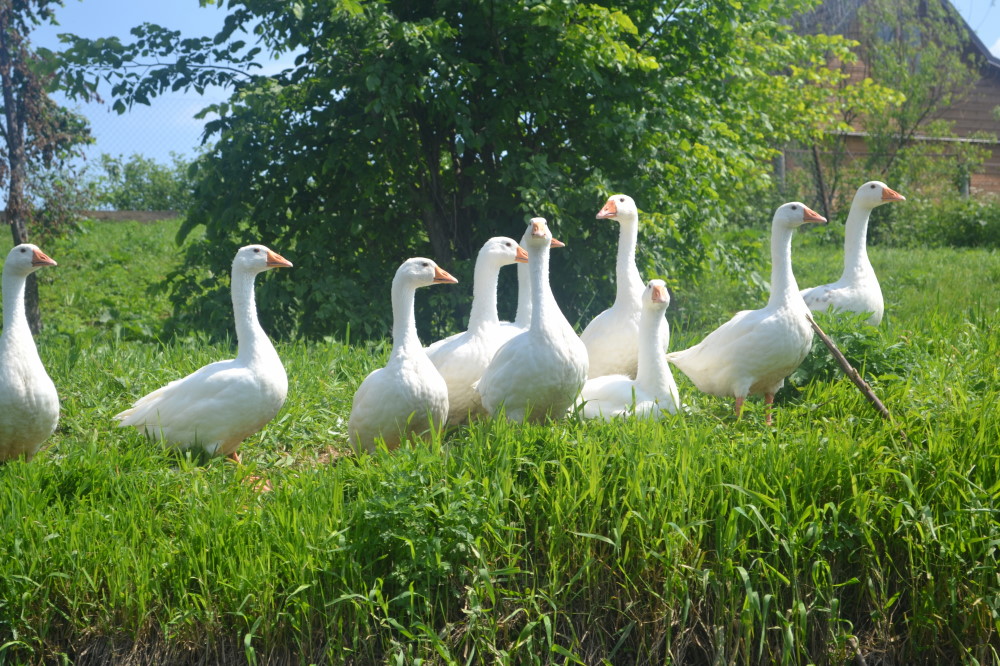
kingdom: Animalia
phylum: Chordata
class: Aves
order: Anseriformes
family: Anatidae
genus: Anser
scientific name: Anser anser
